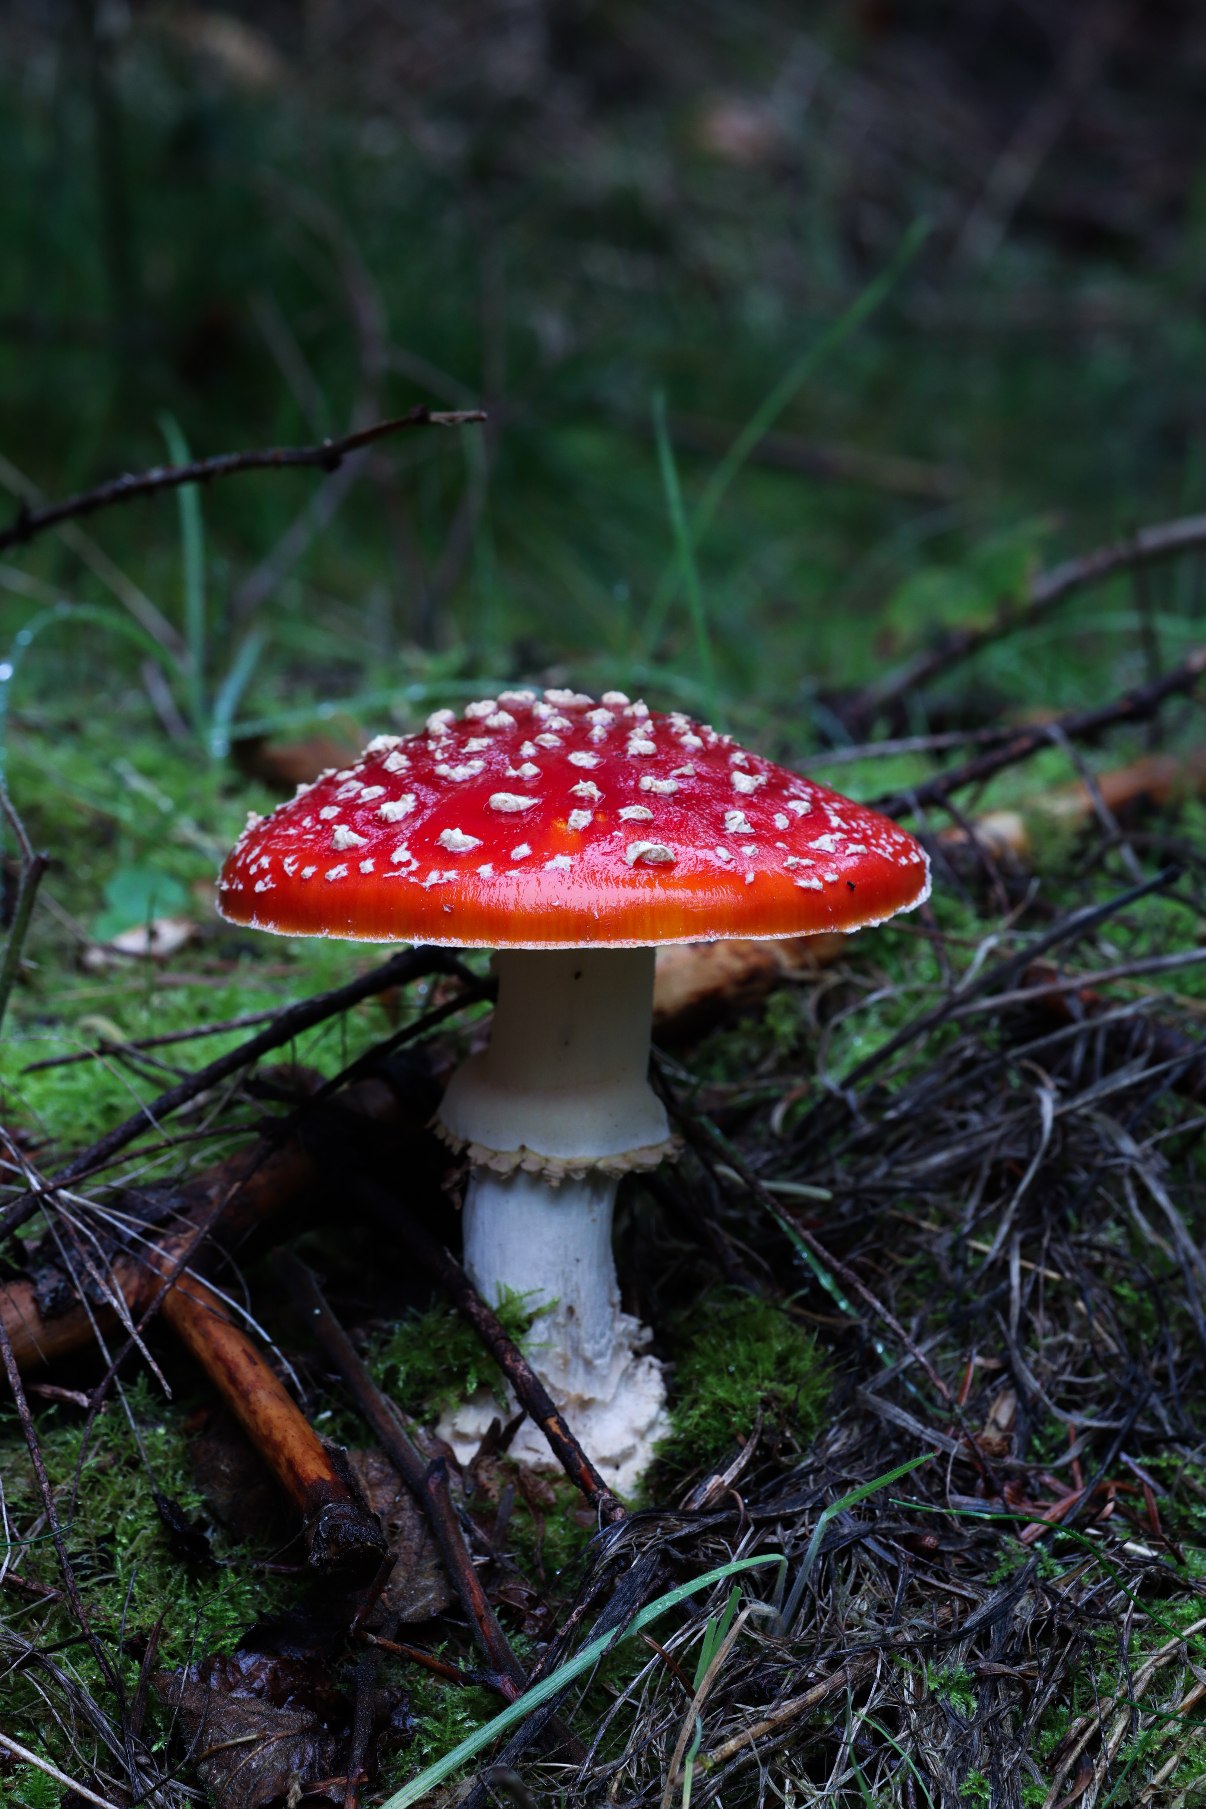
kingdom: Fungi
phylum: Basidiomycota
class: Agaricomycetes
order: Agaricales
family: Amanitaceae
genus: Amanita
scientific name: Amanita muscaria
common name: Rød fluesvamp
